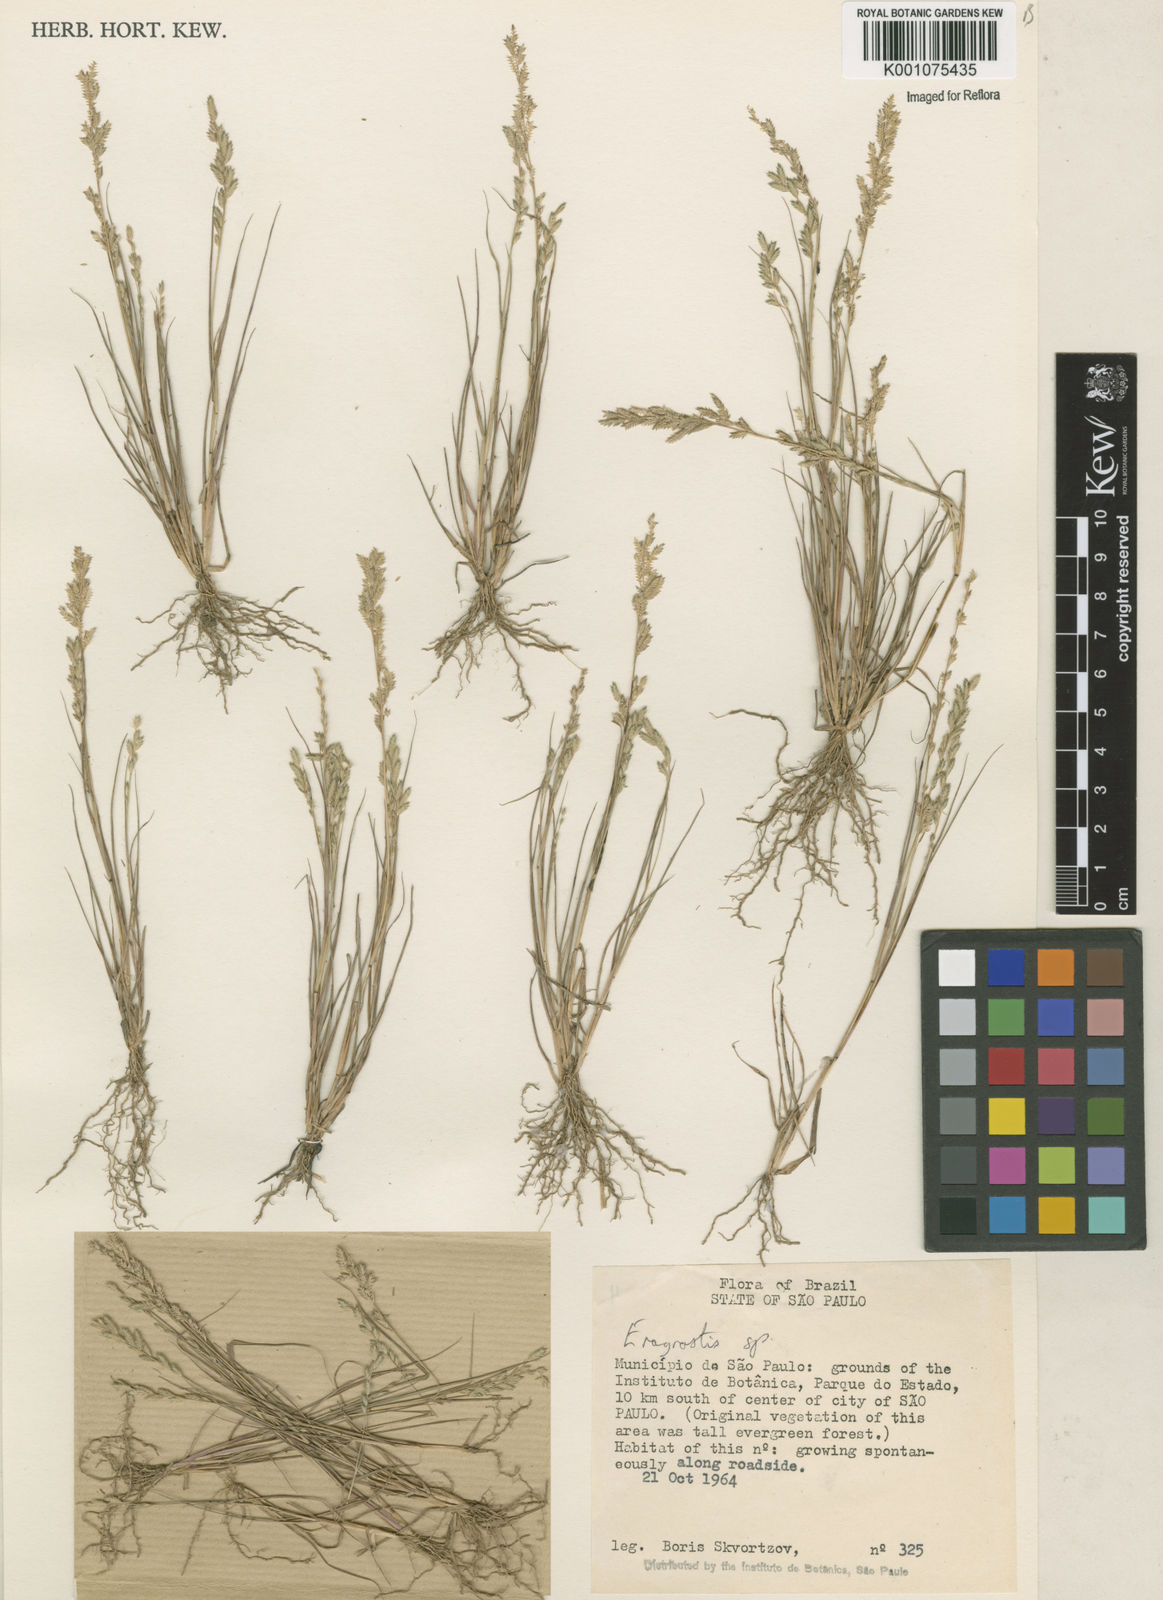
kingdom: Plantae
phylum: Tracheophyta
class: Liliopsida
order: Poales
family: Poaceae
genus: Eragrostis
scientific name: Eragrostis rufescens
